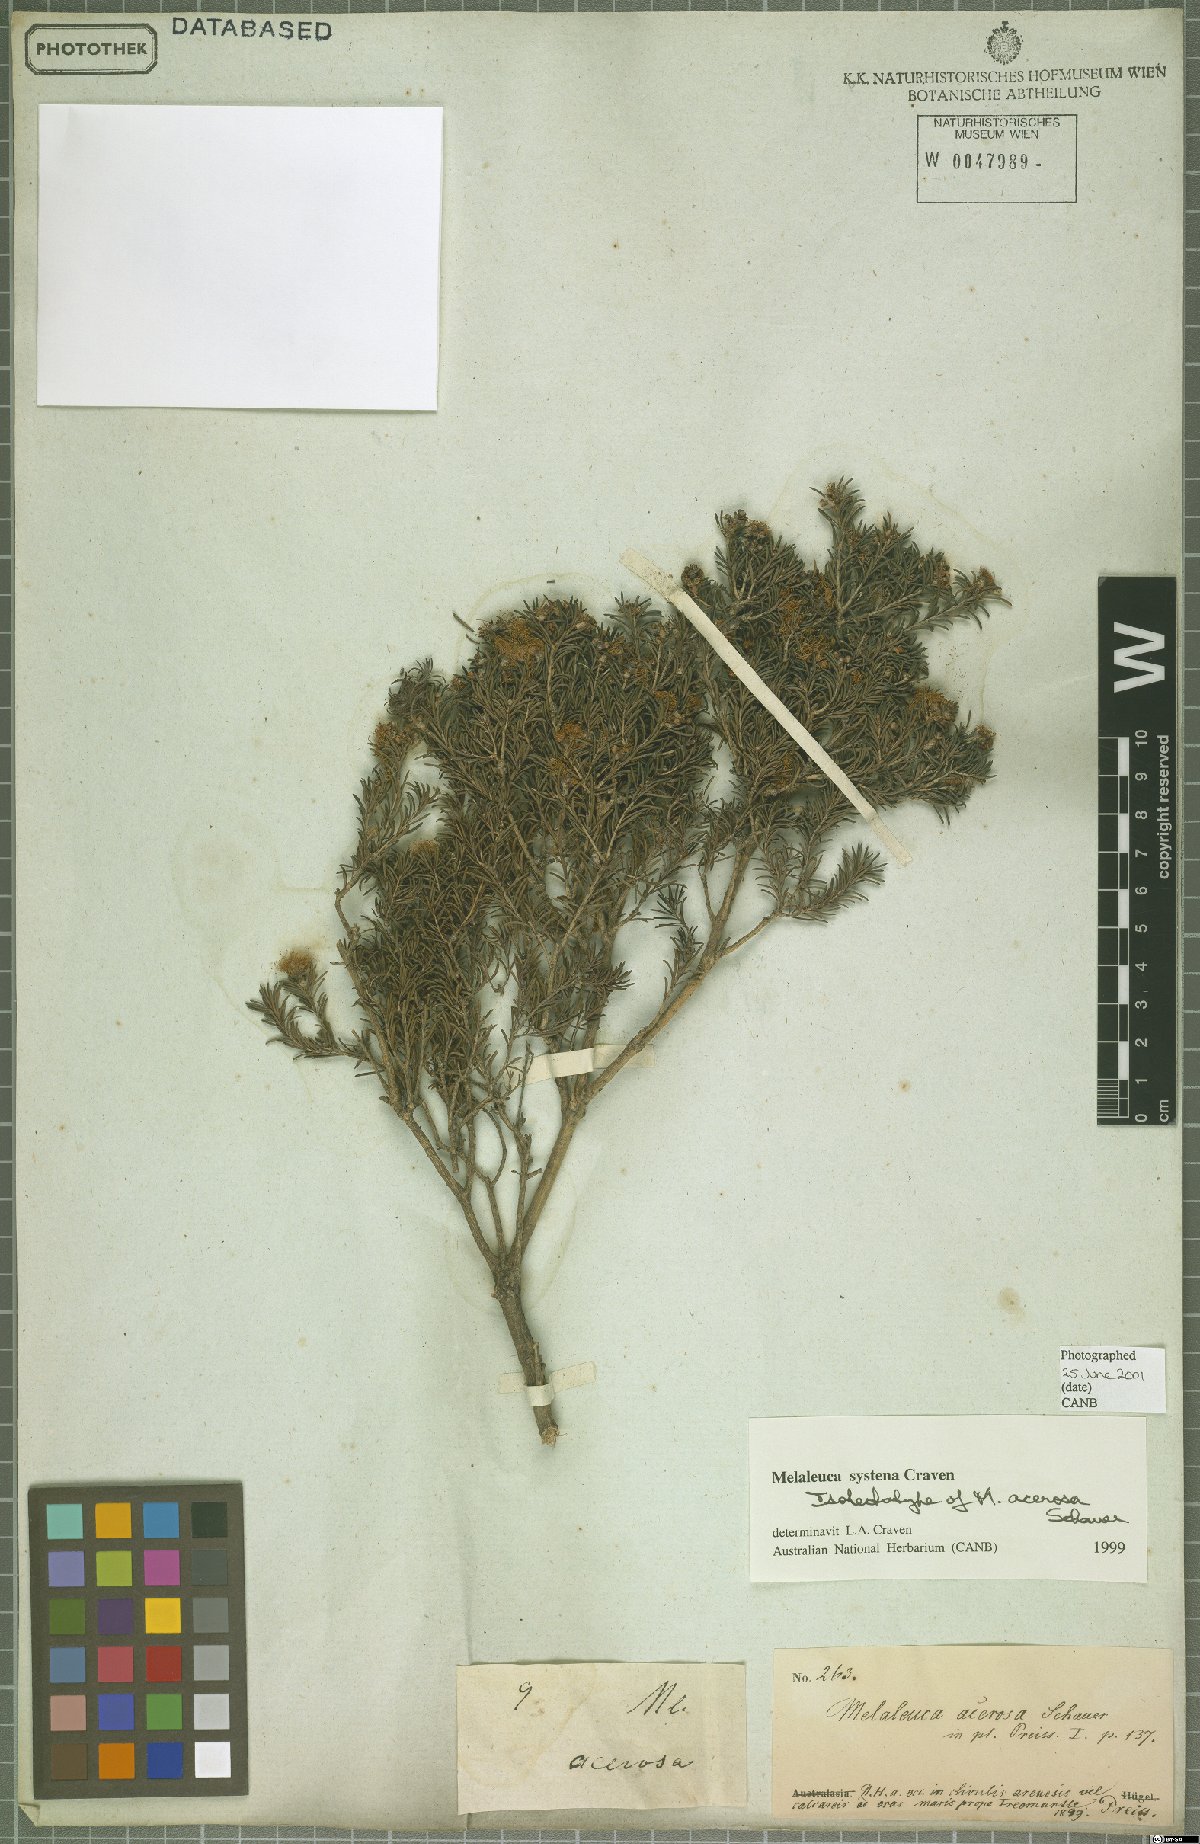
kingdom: Plantae
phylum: Tracheophyta
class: Magnoliopsida
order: Myrtales
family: Myrtaceae
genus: Melaleuca
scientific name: Melaleuca systena
